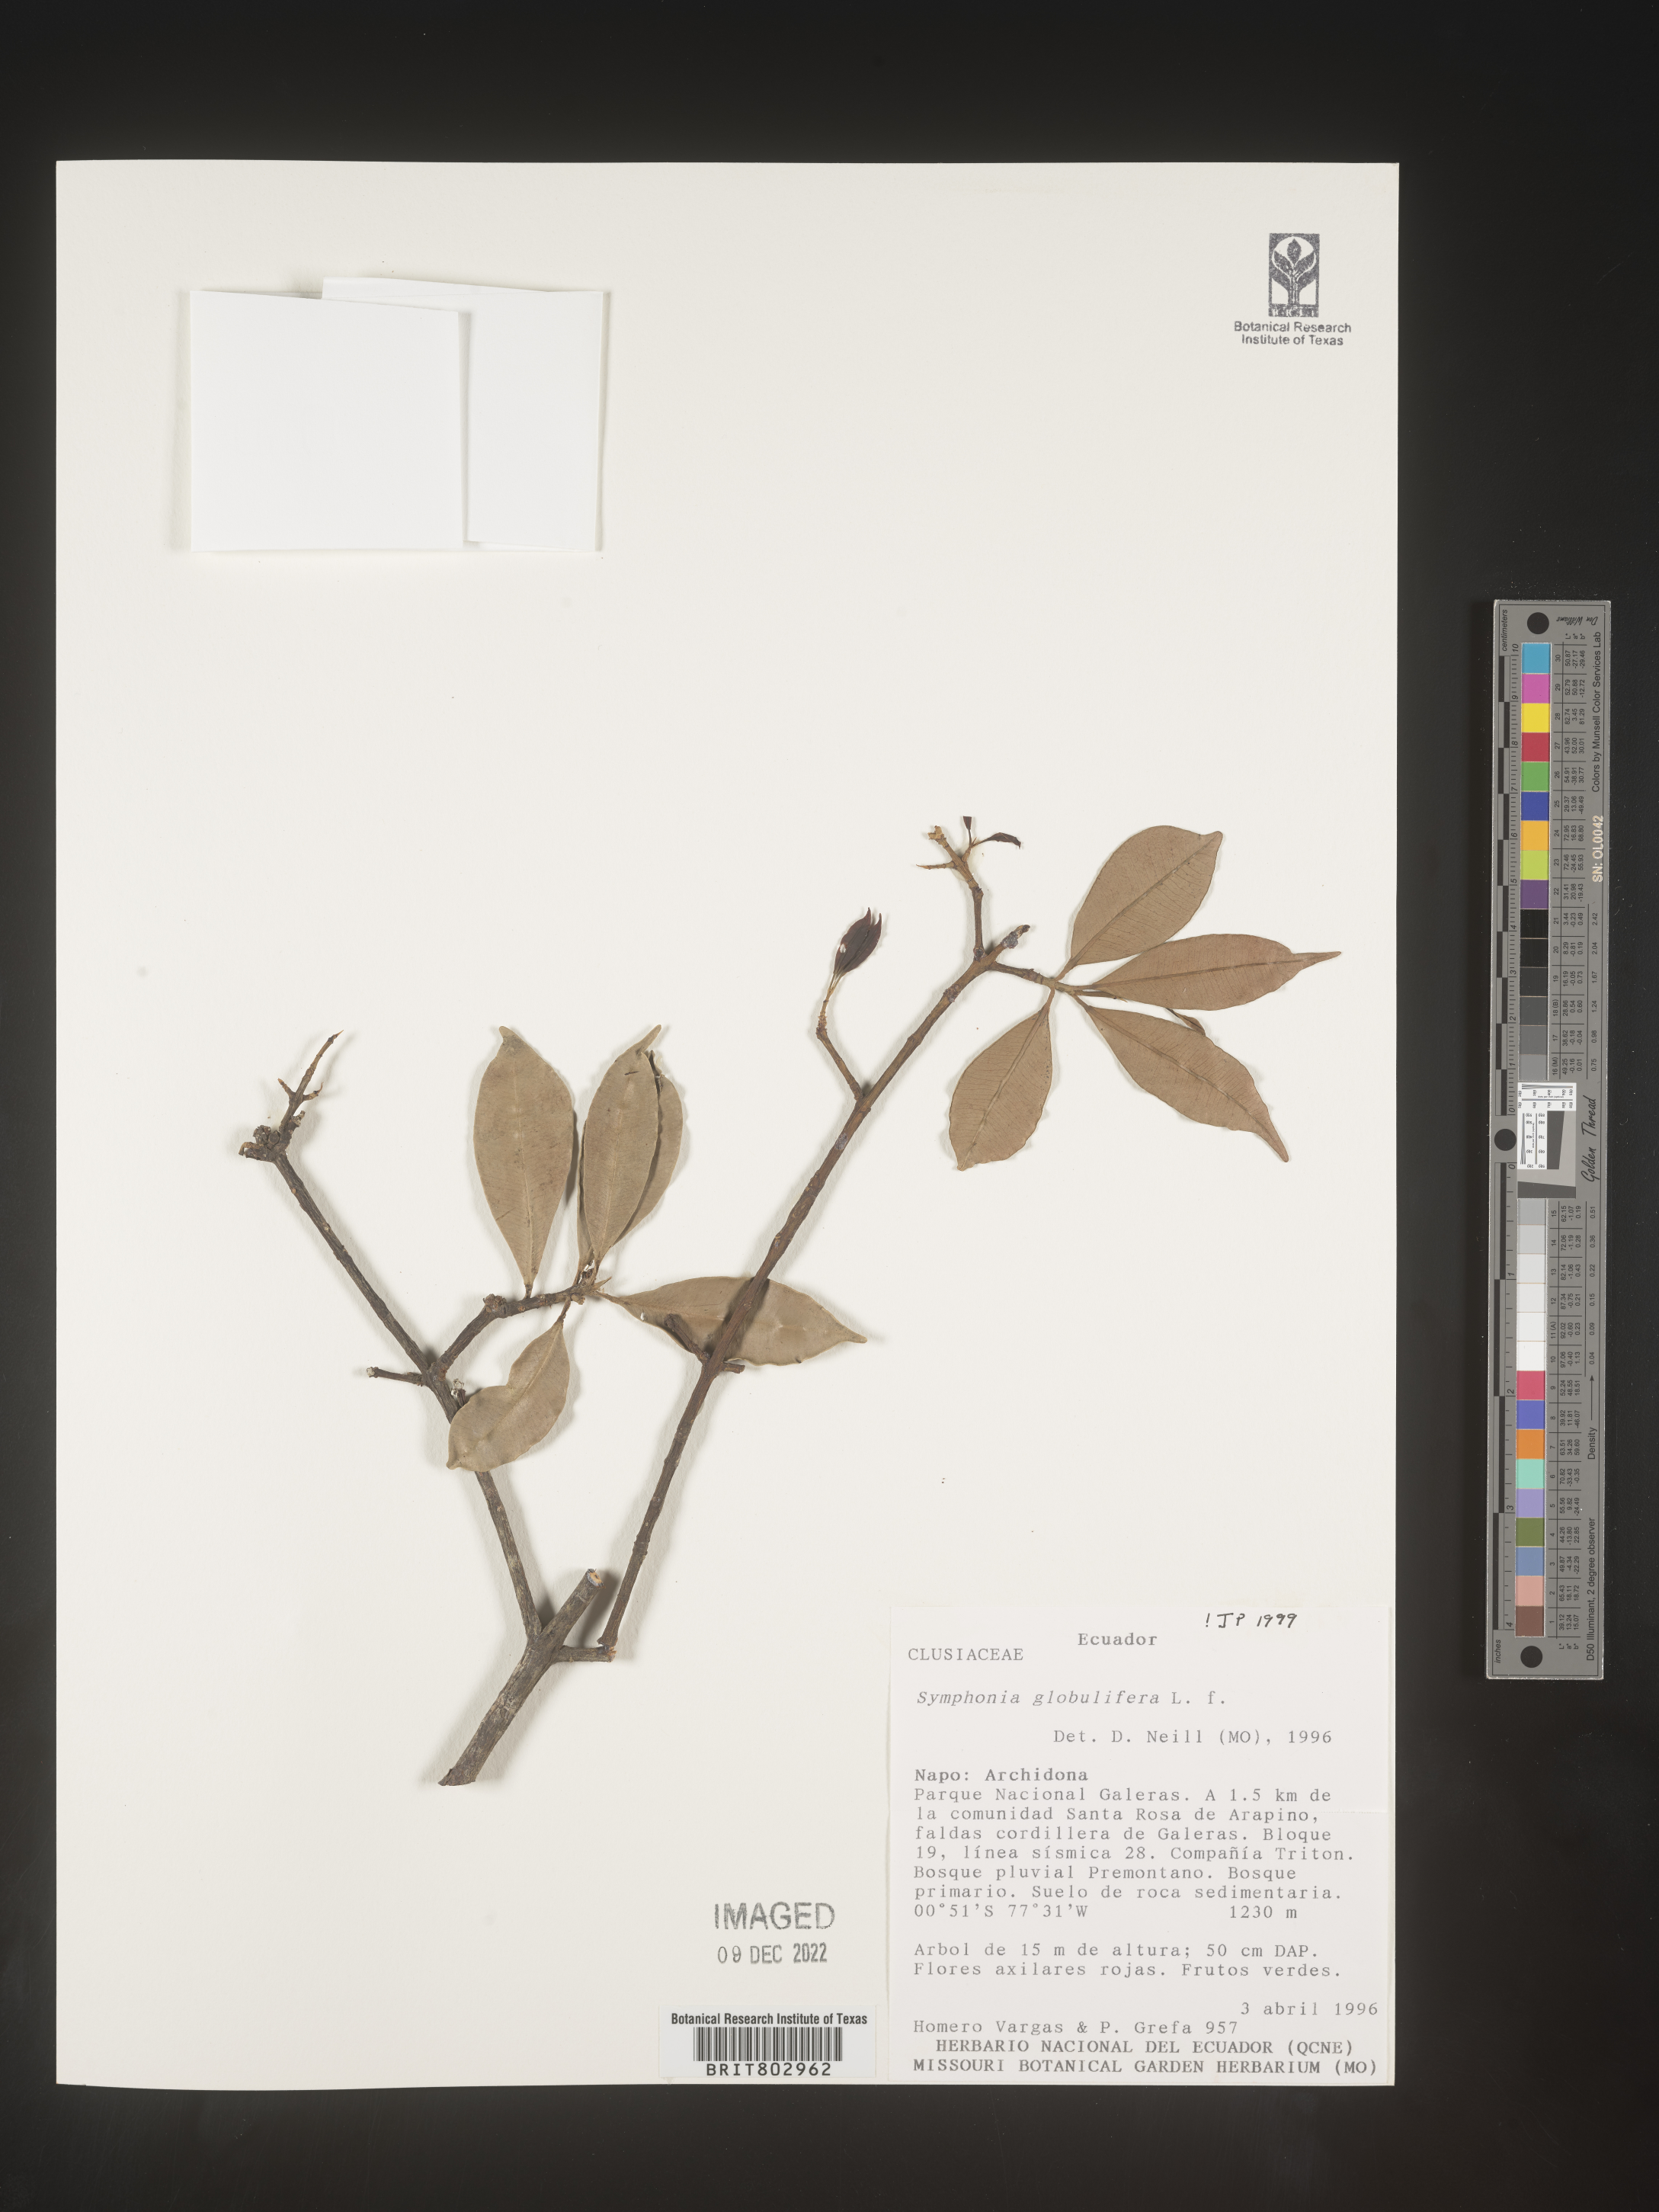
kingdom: Plantae
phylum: Tracheophyta
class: Magnoliopsida
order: Malpighiales
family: Clusiaceae
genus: Symphonia
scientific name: Symphonia
